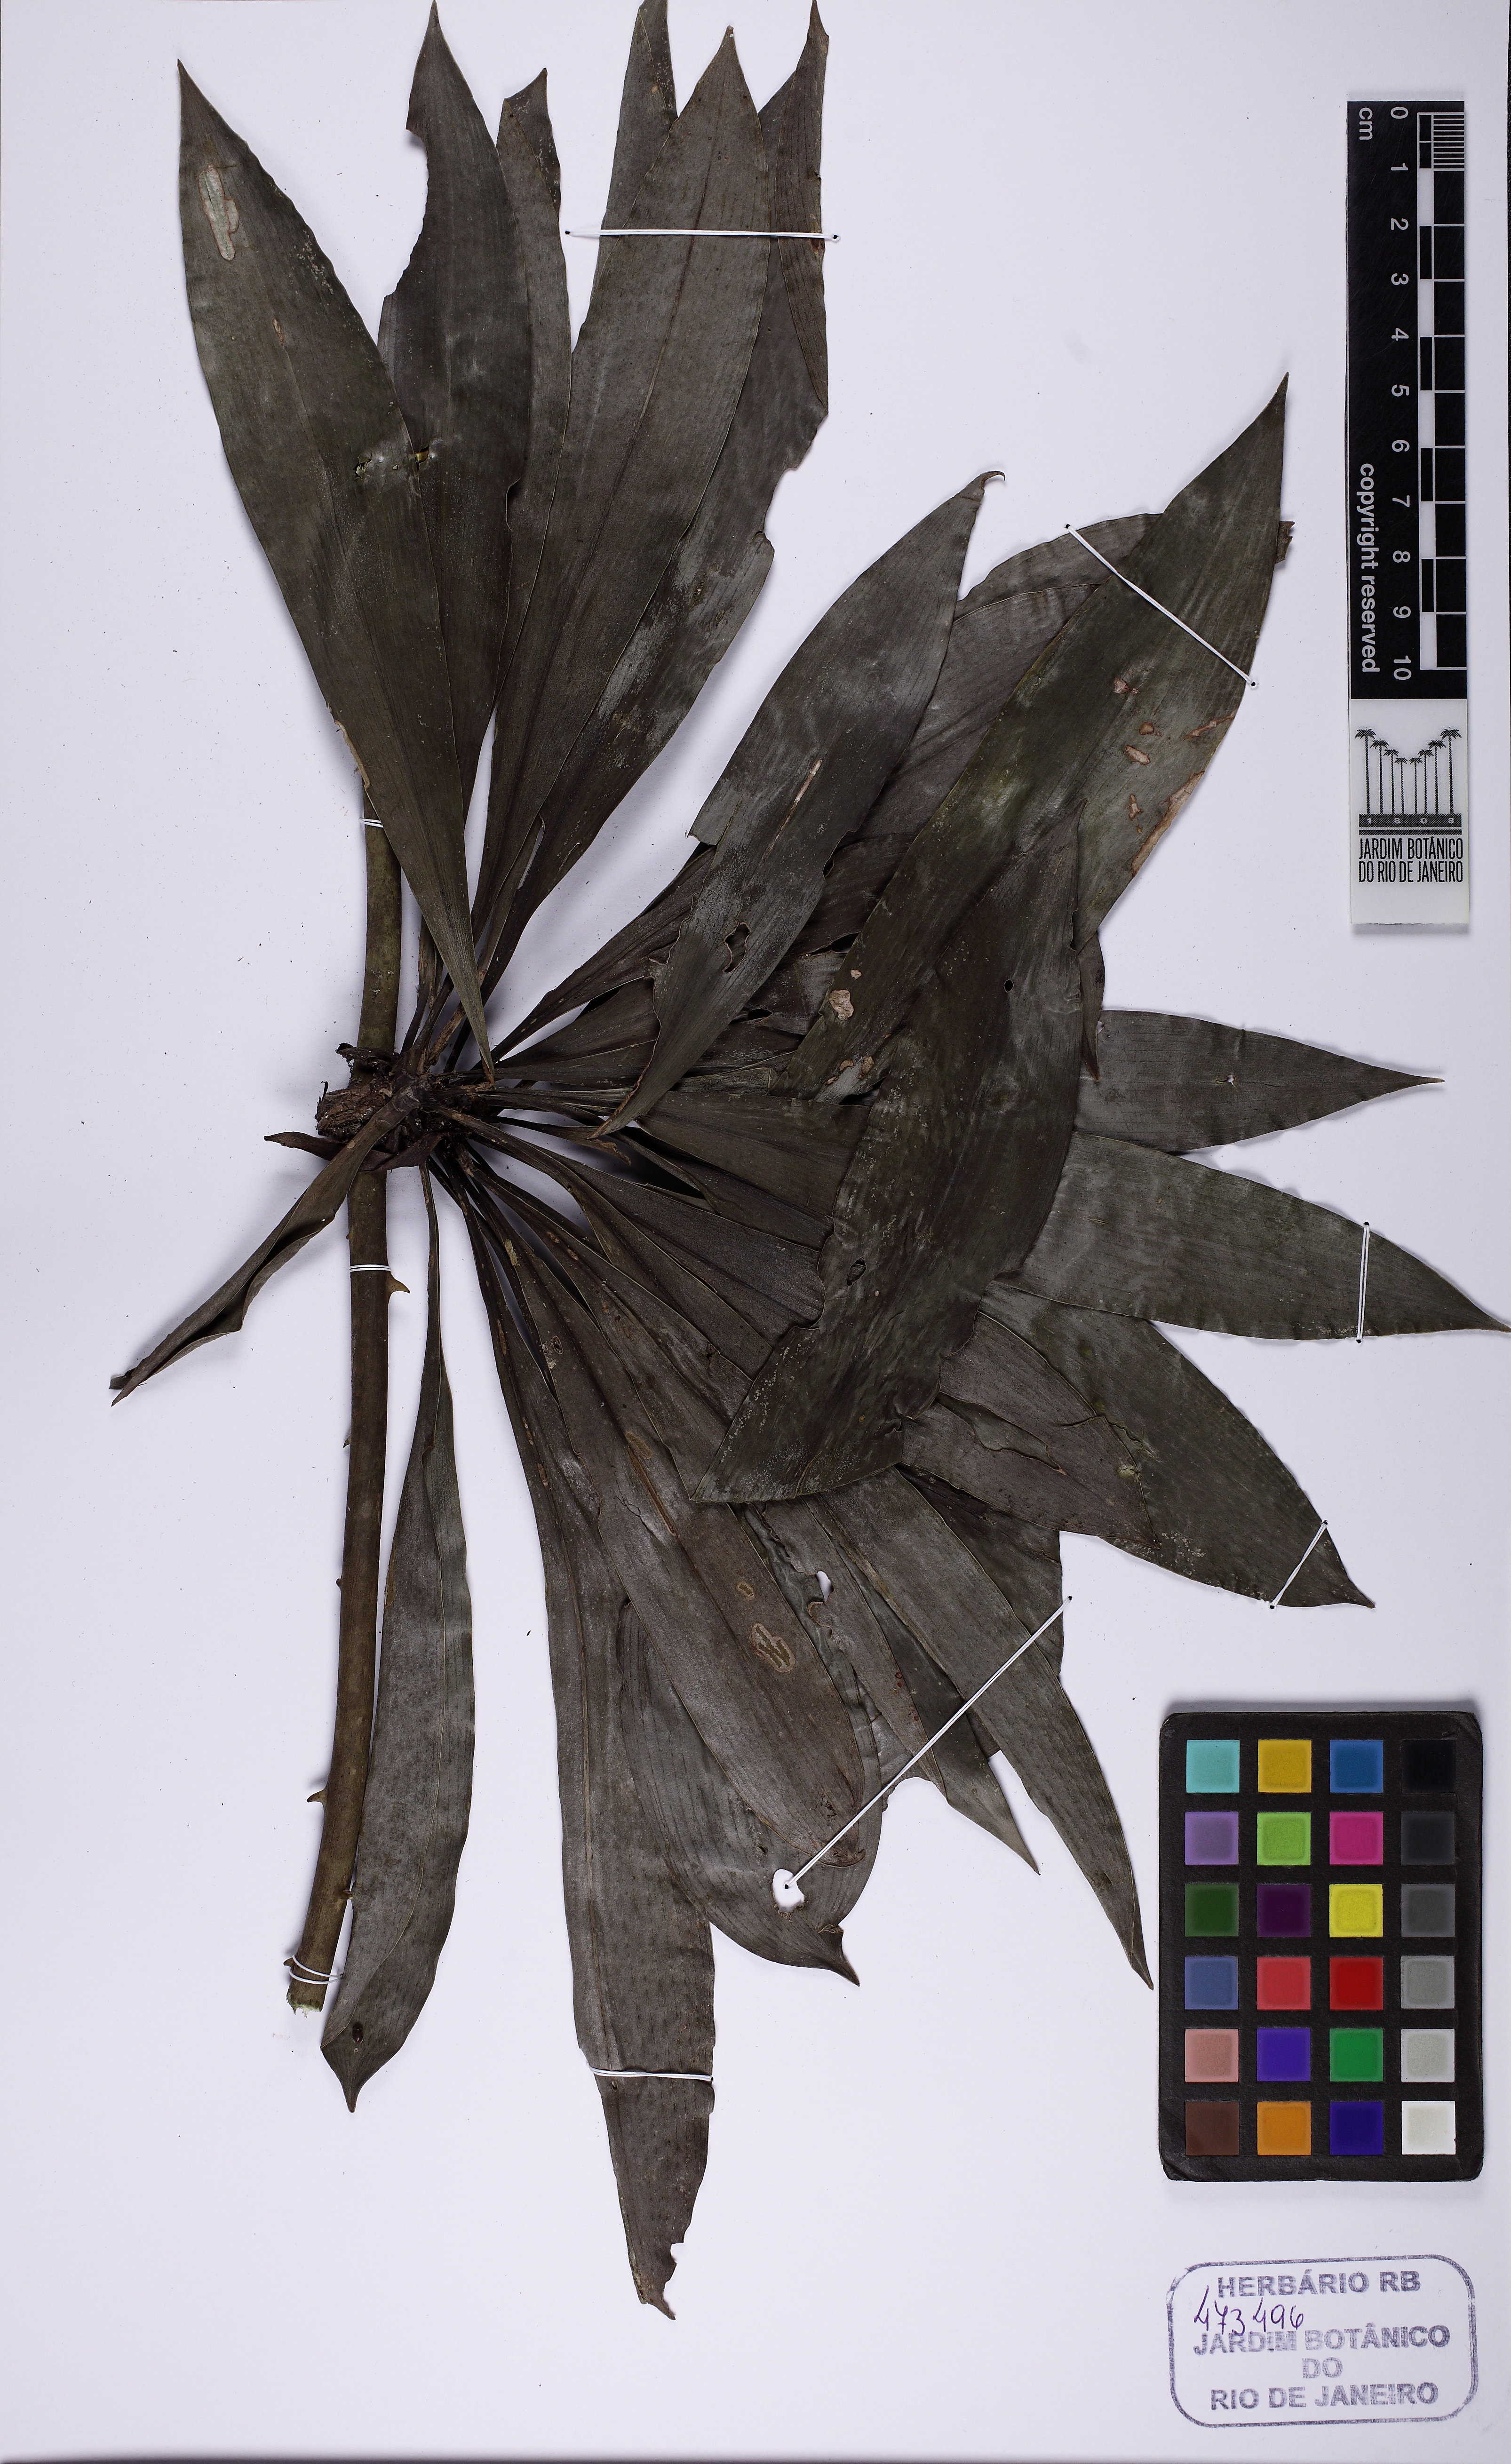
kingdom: Plantae
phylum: Tracheophyta
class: Liliopsida
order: Asparagales
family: Asparagaceae
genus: Herreria
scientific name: Herreria salsaparilha
